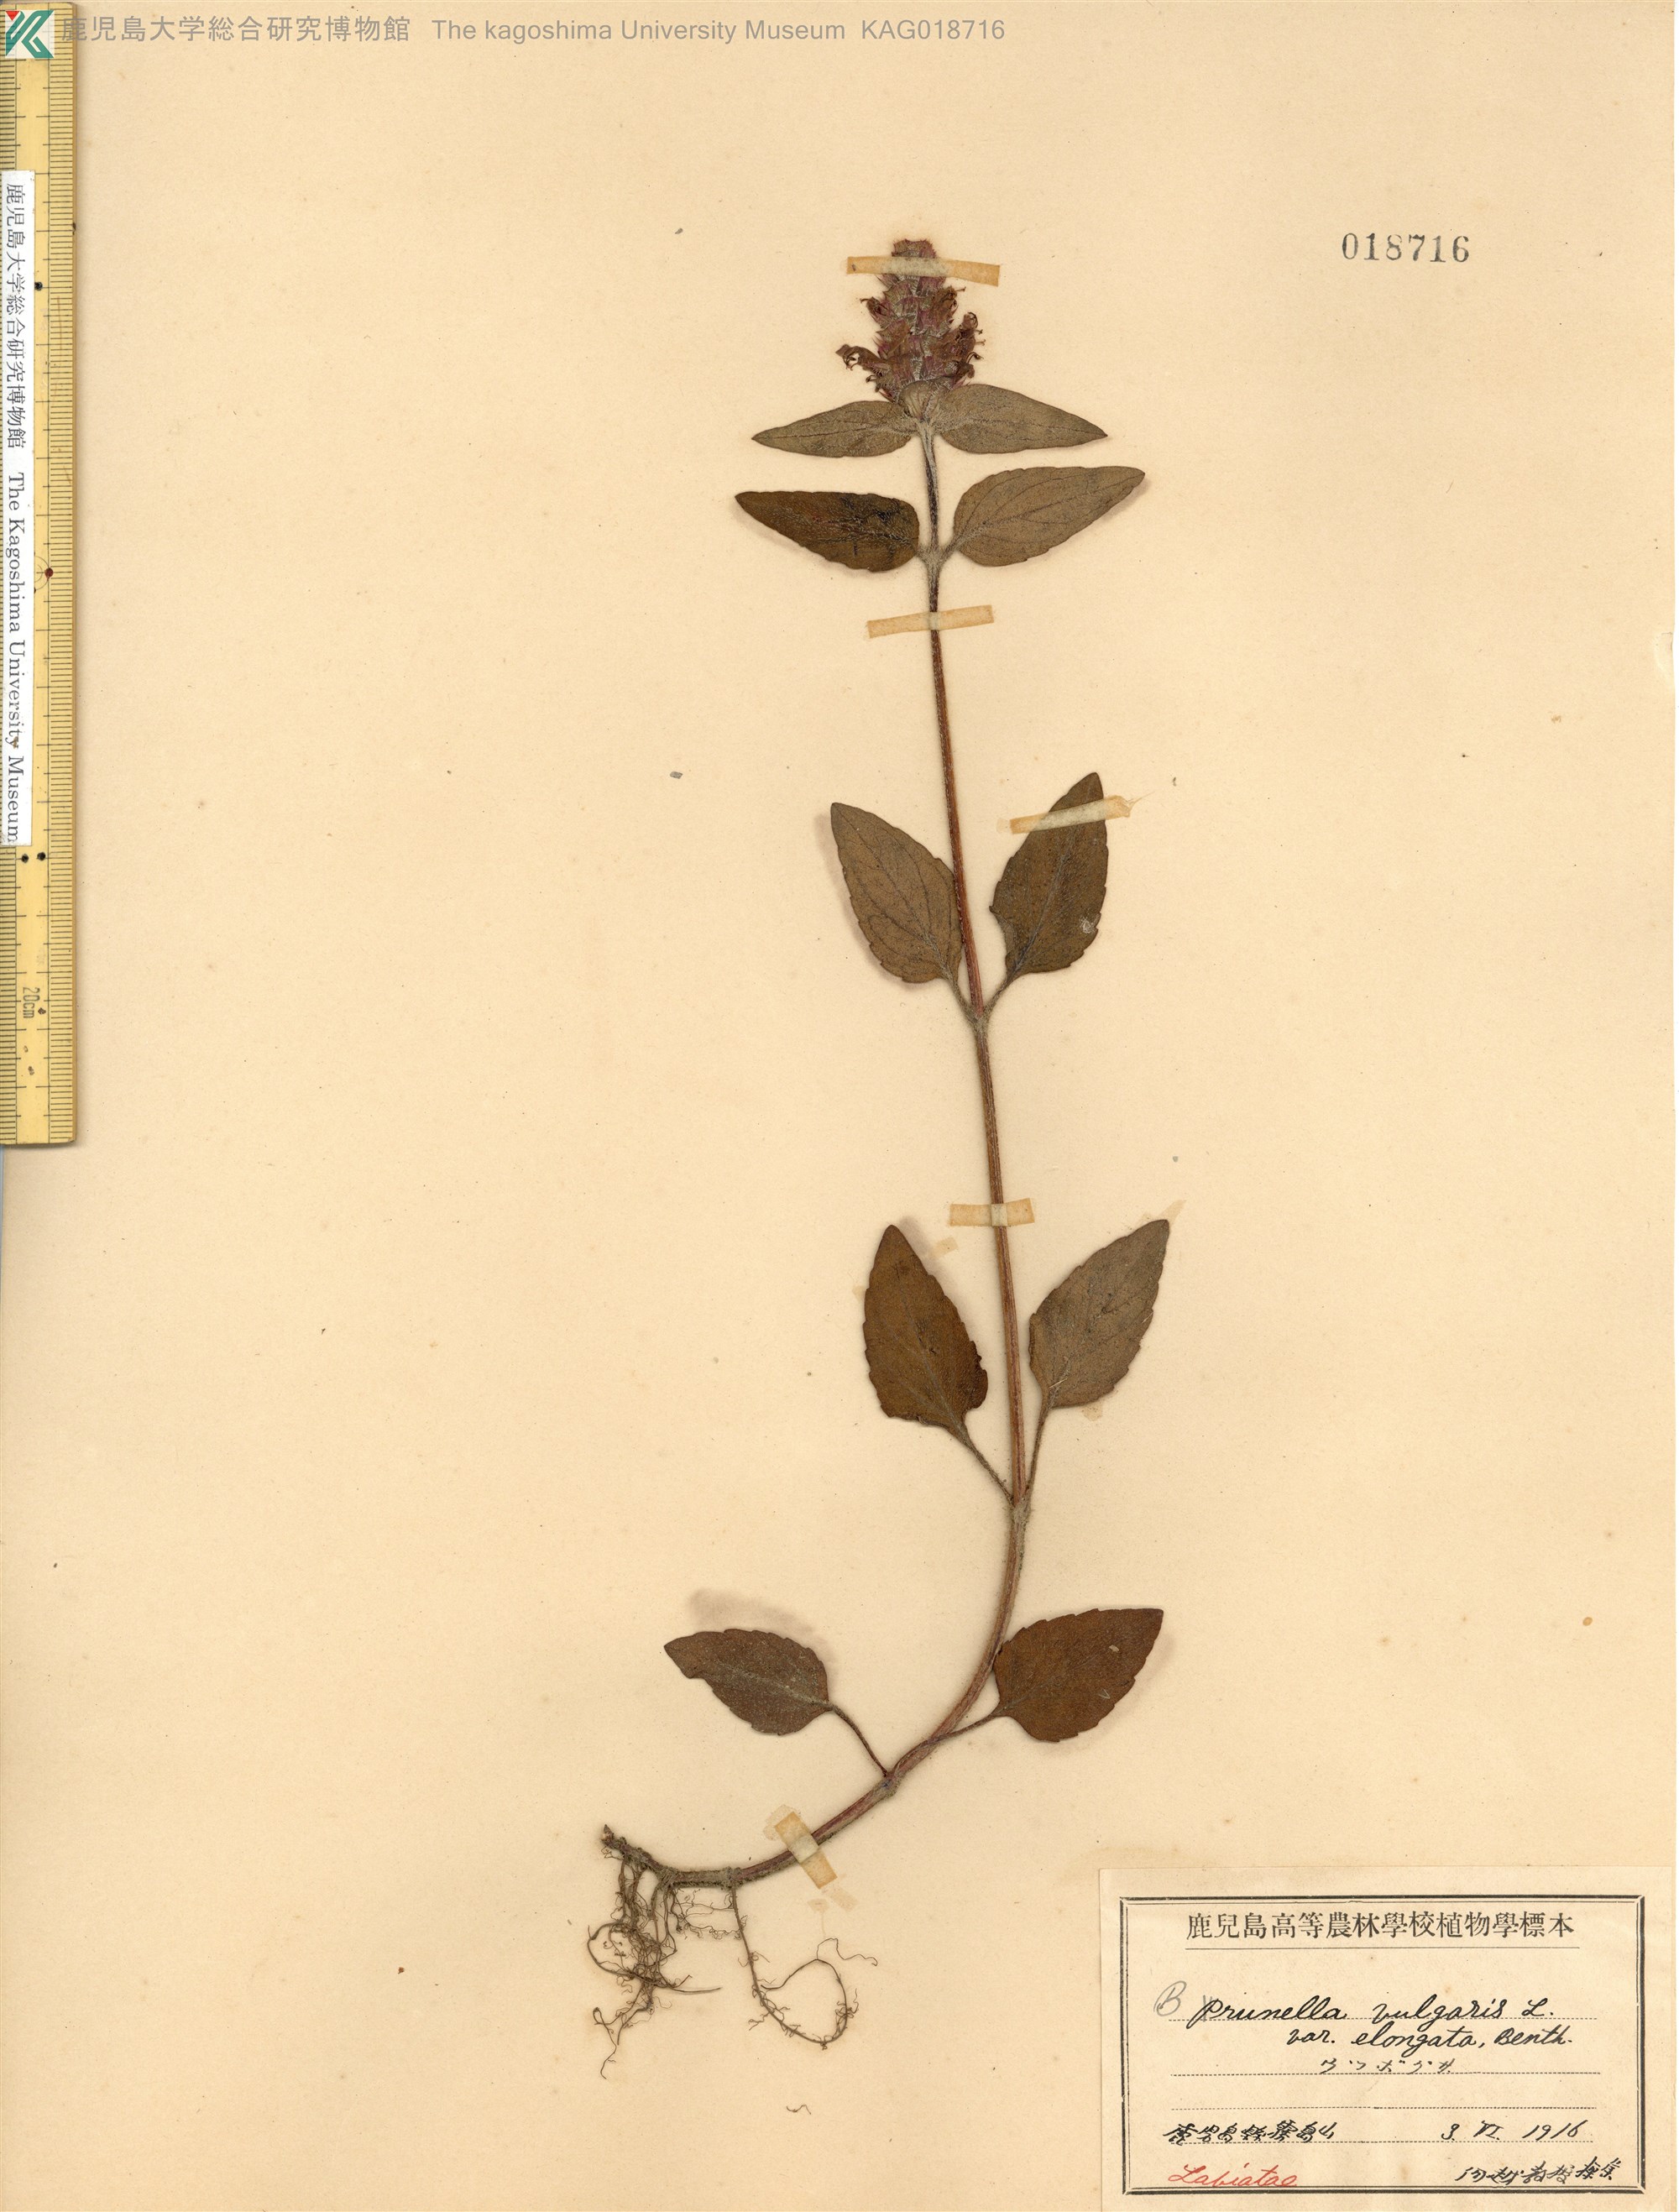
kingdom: Plantae
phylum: Tracheophyta
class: Magnoliopsida
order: Lamiales
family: Lamiaceae
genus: Prunella
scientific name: Prunella vulgaris
